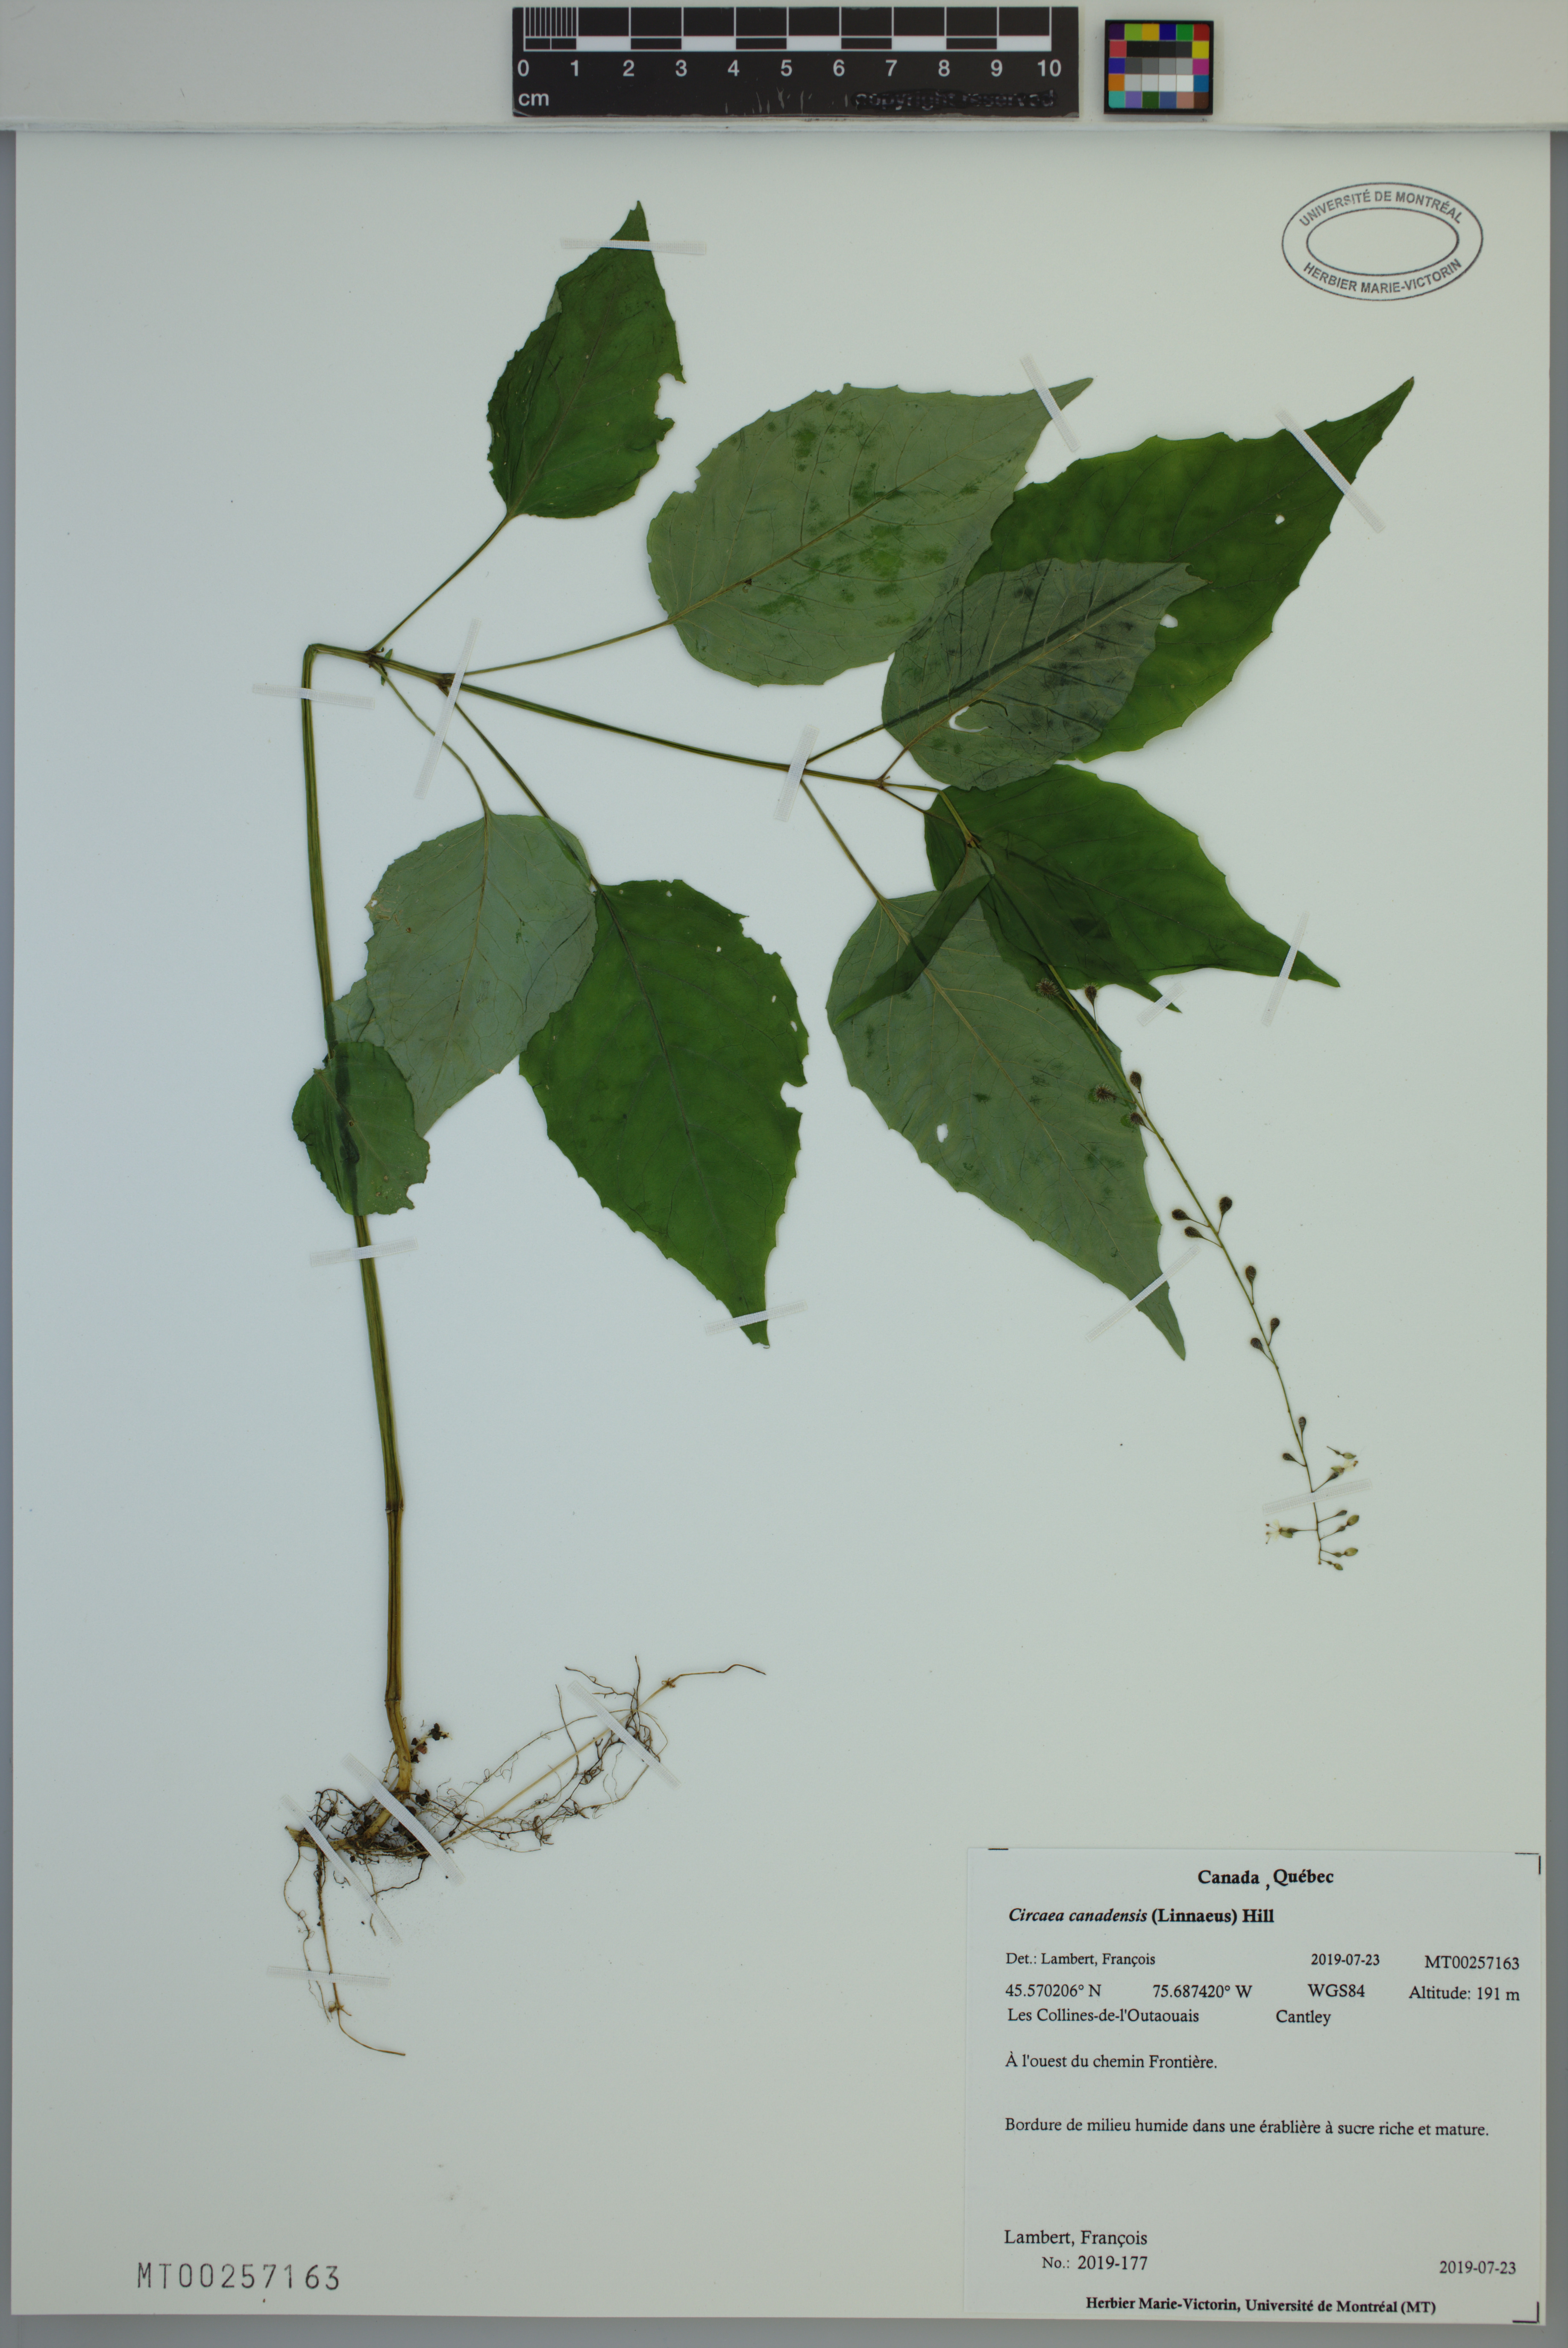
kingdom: Plantae
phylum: Tracheophyta
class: Magnoliopsida
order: Myrtales
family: Onagraceae
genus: Circaea
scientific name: Circaea canadensis
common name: Broad-leaved enchanter's nightshade
